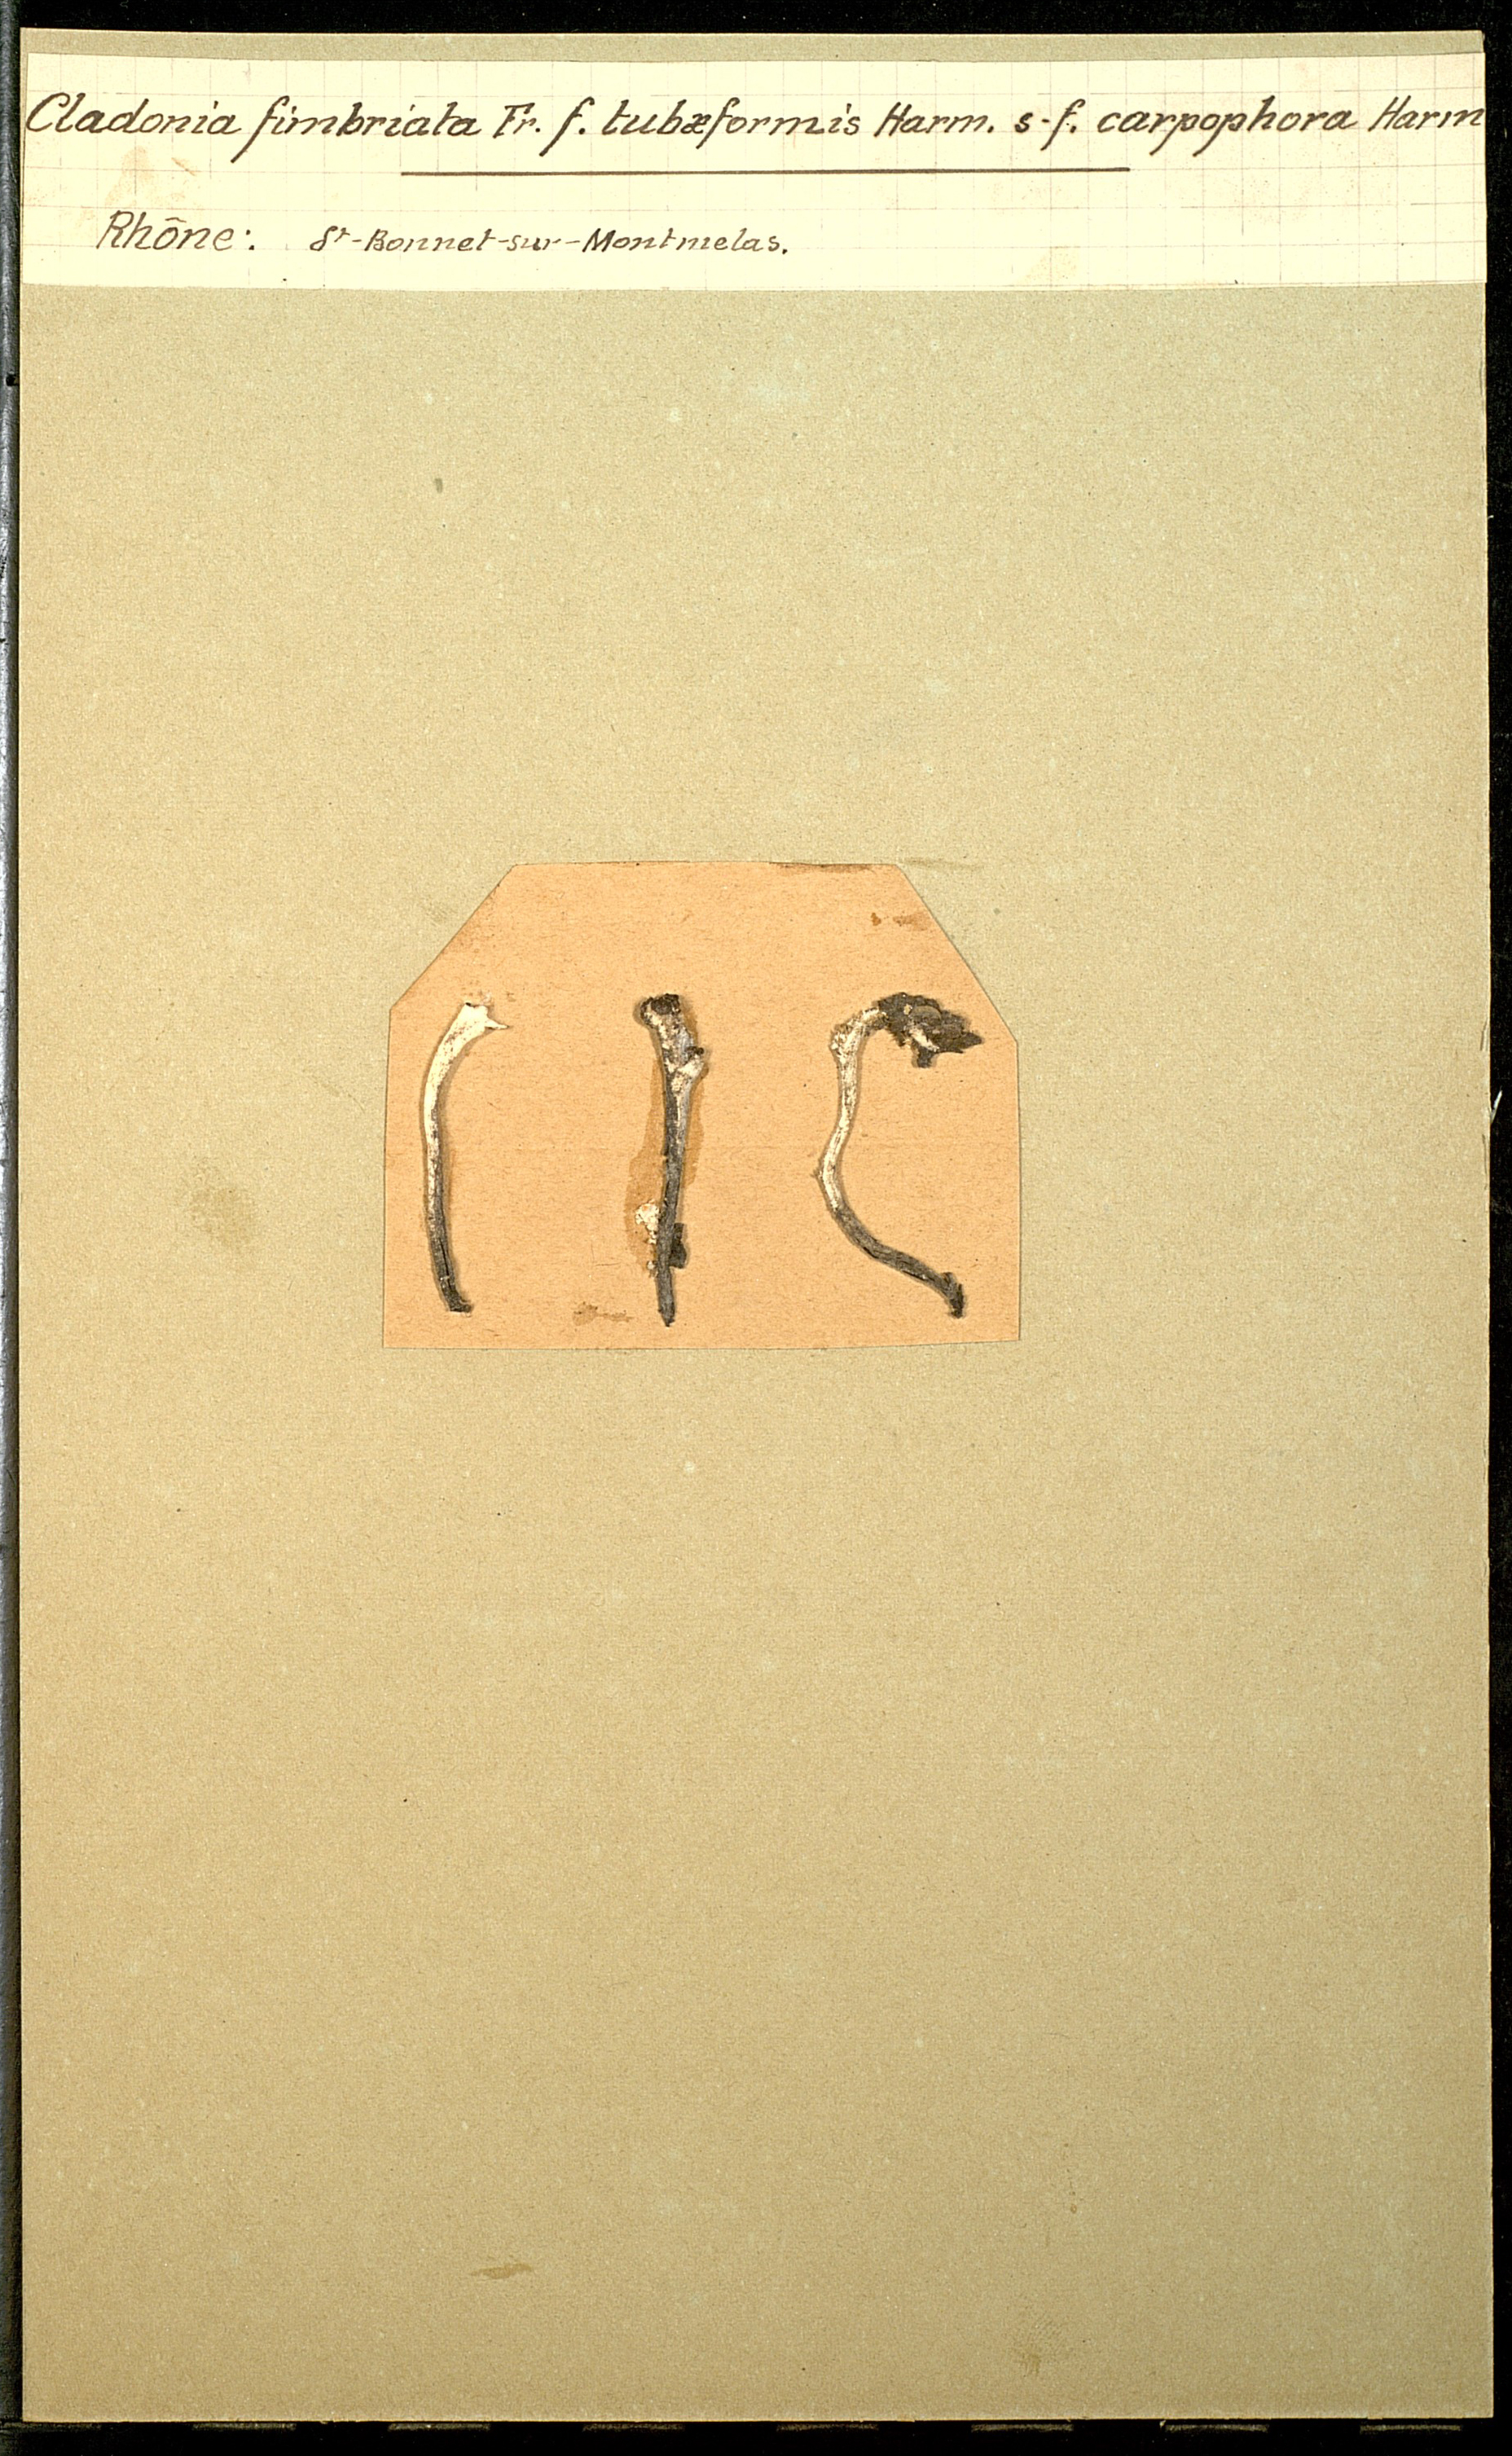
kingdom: Fungi
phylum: Ascomycota
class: Lecanoromycetes
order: Lecanorales
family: Cladoniaceae
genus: Cladonia
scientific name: Cladonia fimbriata
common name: Powdered trumpet lichen
